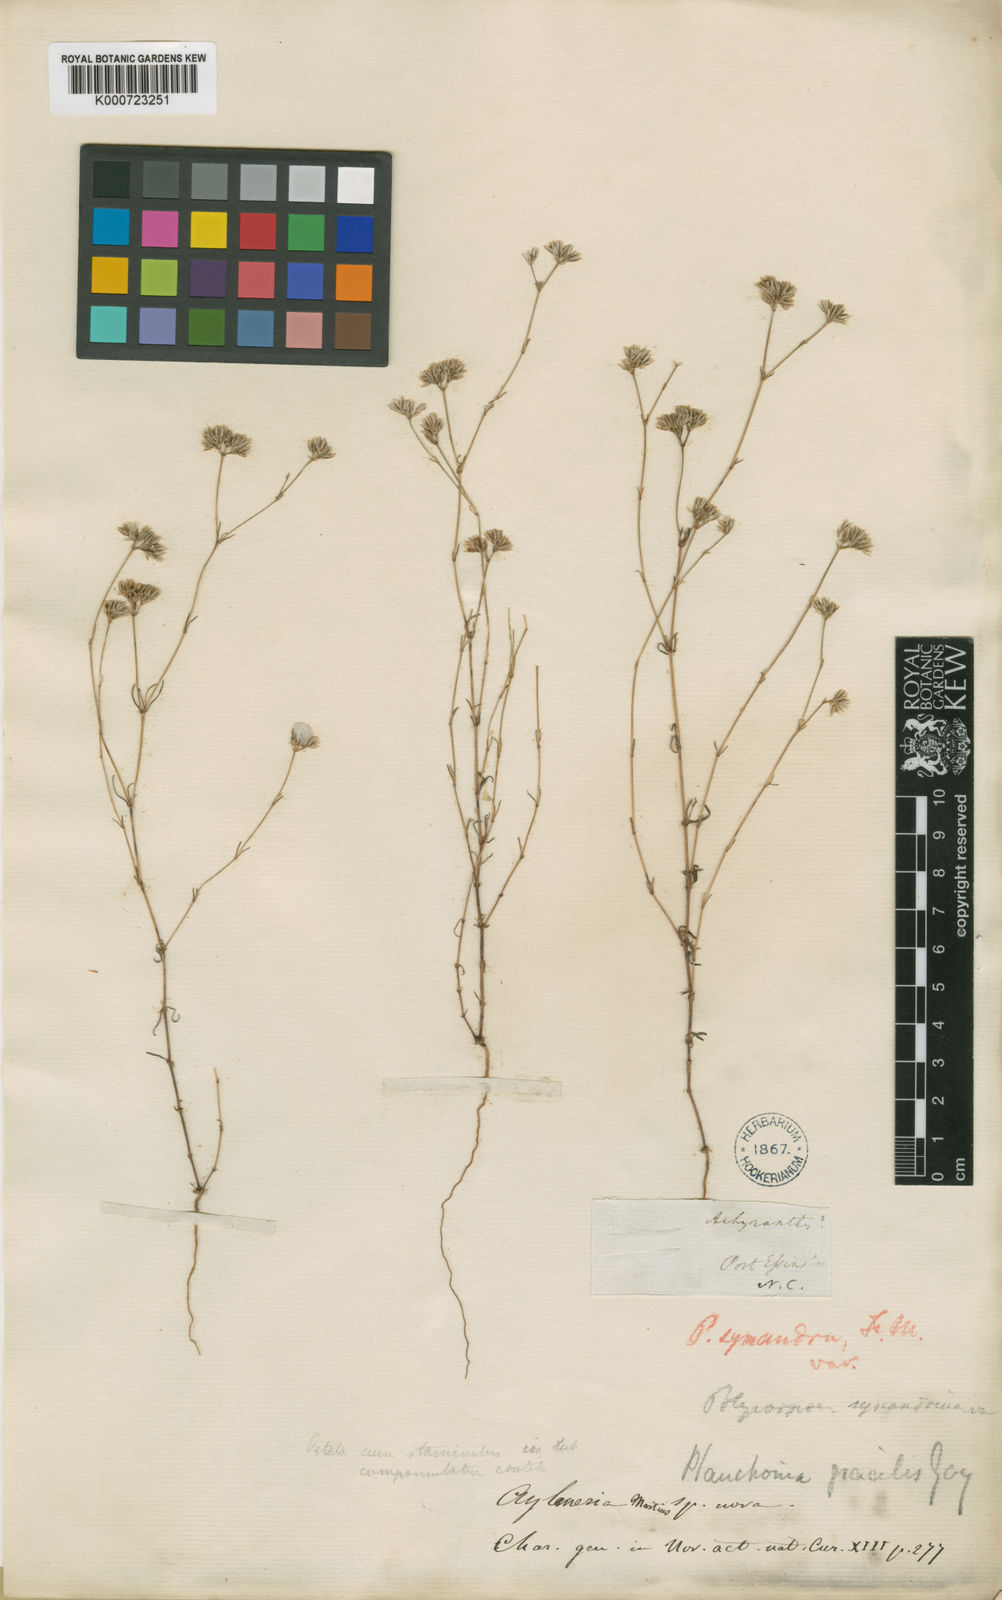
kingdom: Plantae
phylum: Tracheophyta
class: Magnoliopsida
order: Caryophyllales
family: Caryophyllaceae
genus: Polycarpaea
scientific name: Polycarpaea breviflora
